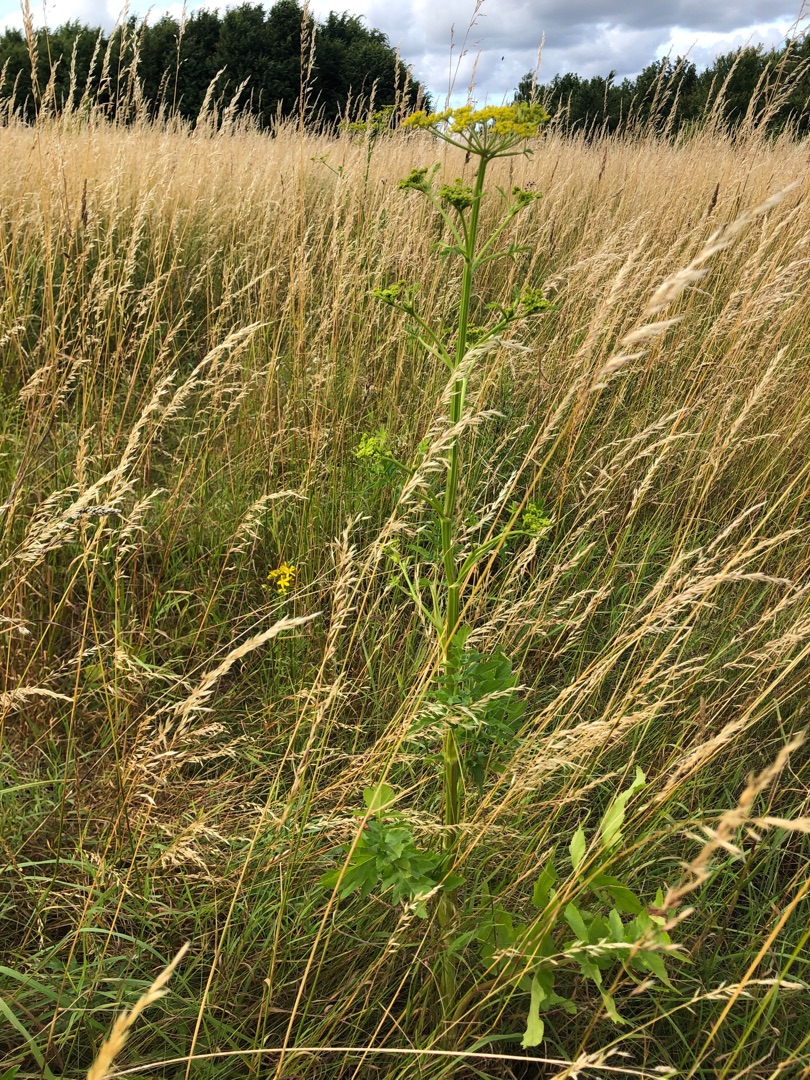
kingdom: Plantae
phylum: Tracheophyta
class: Magnoliopsida
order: Apiales
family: Apiaceae
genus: Pastinaca
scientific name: Pastinaca sativa
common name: Pastinak
